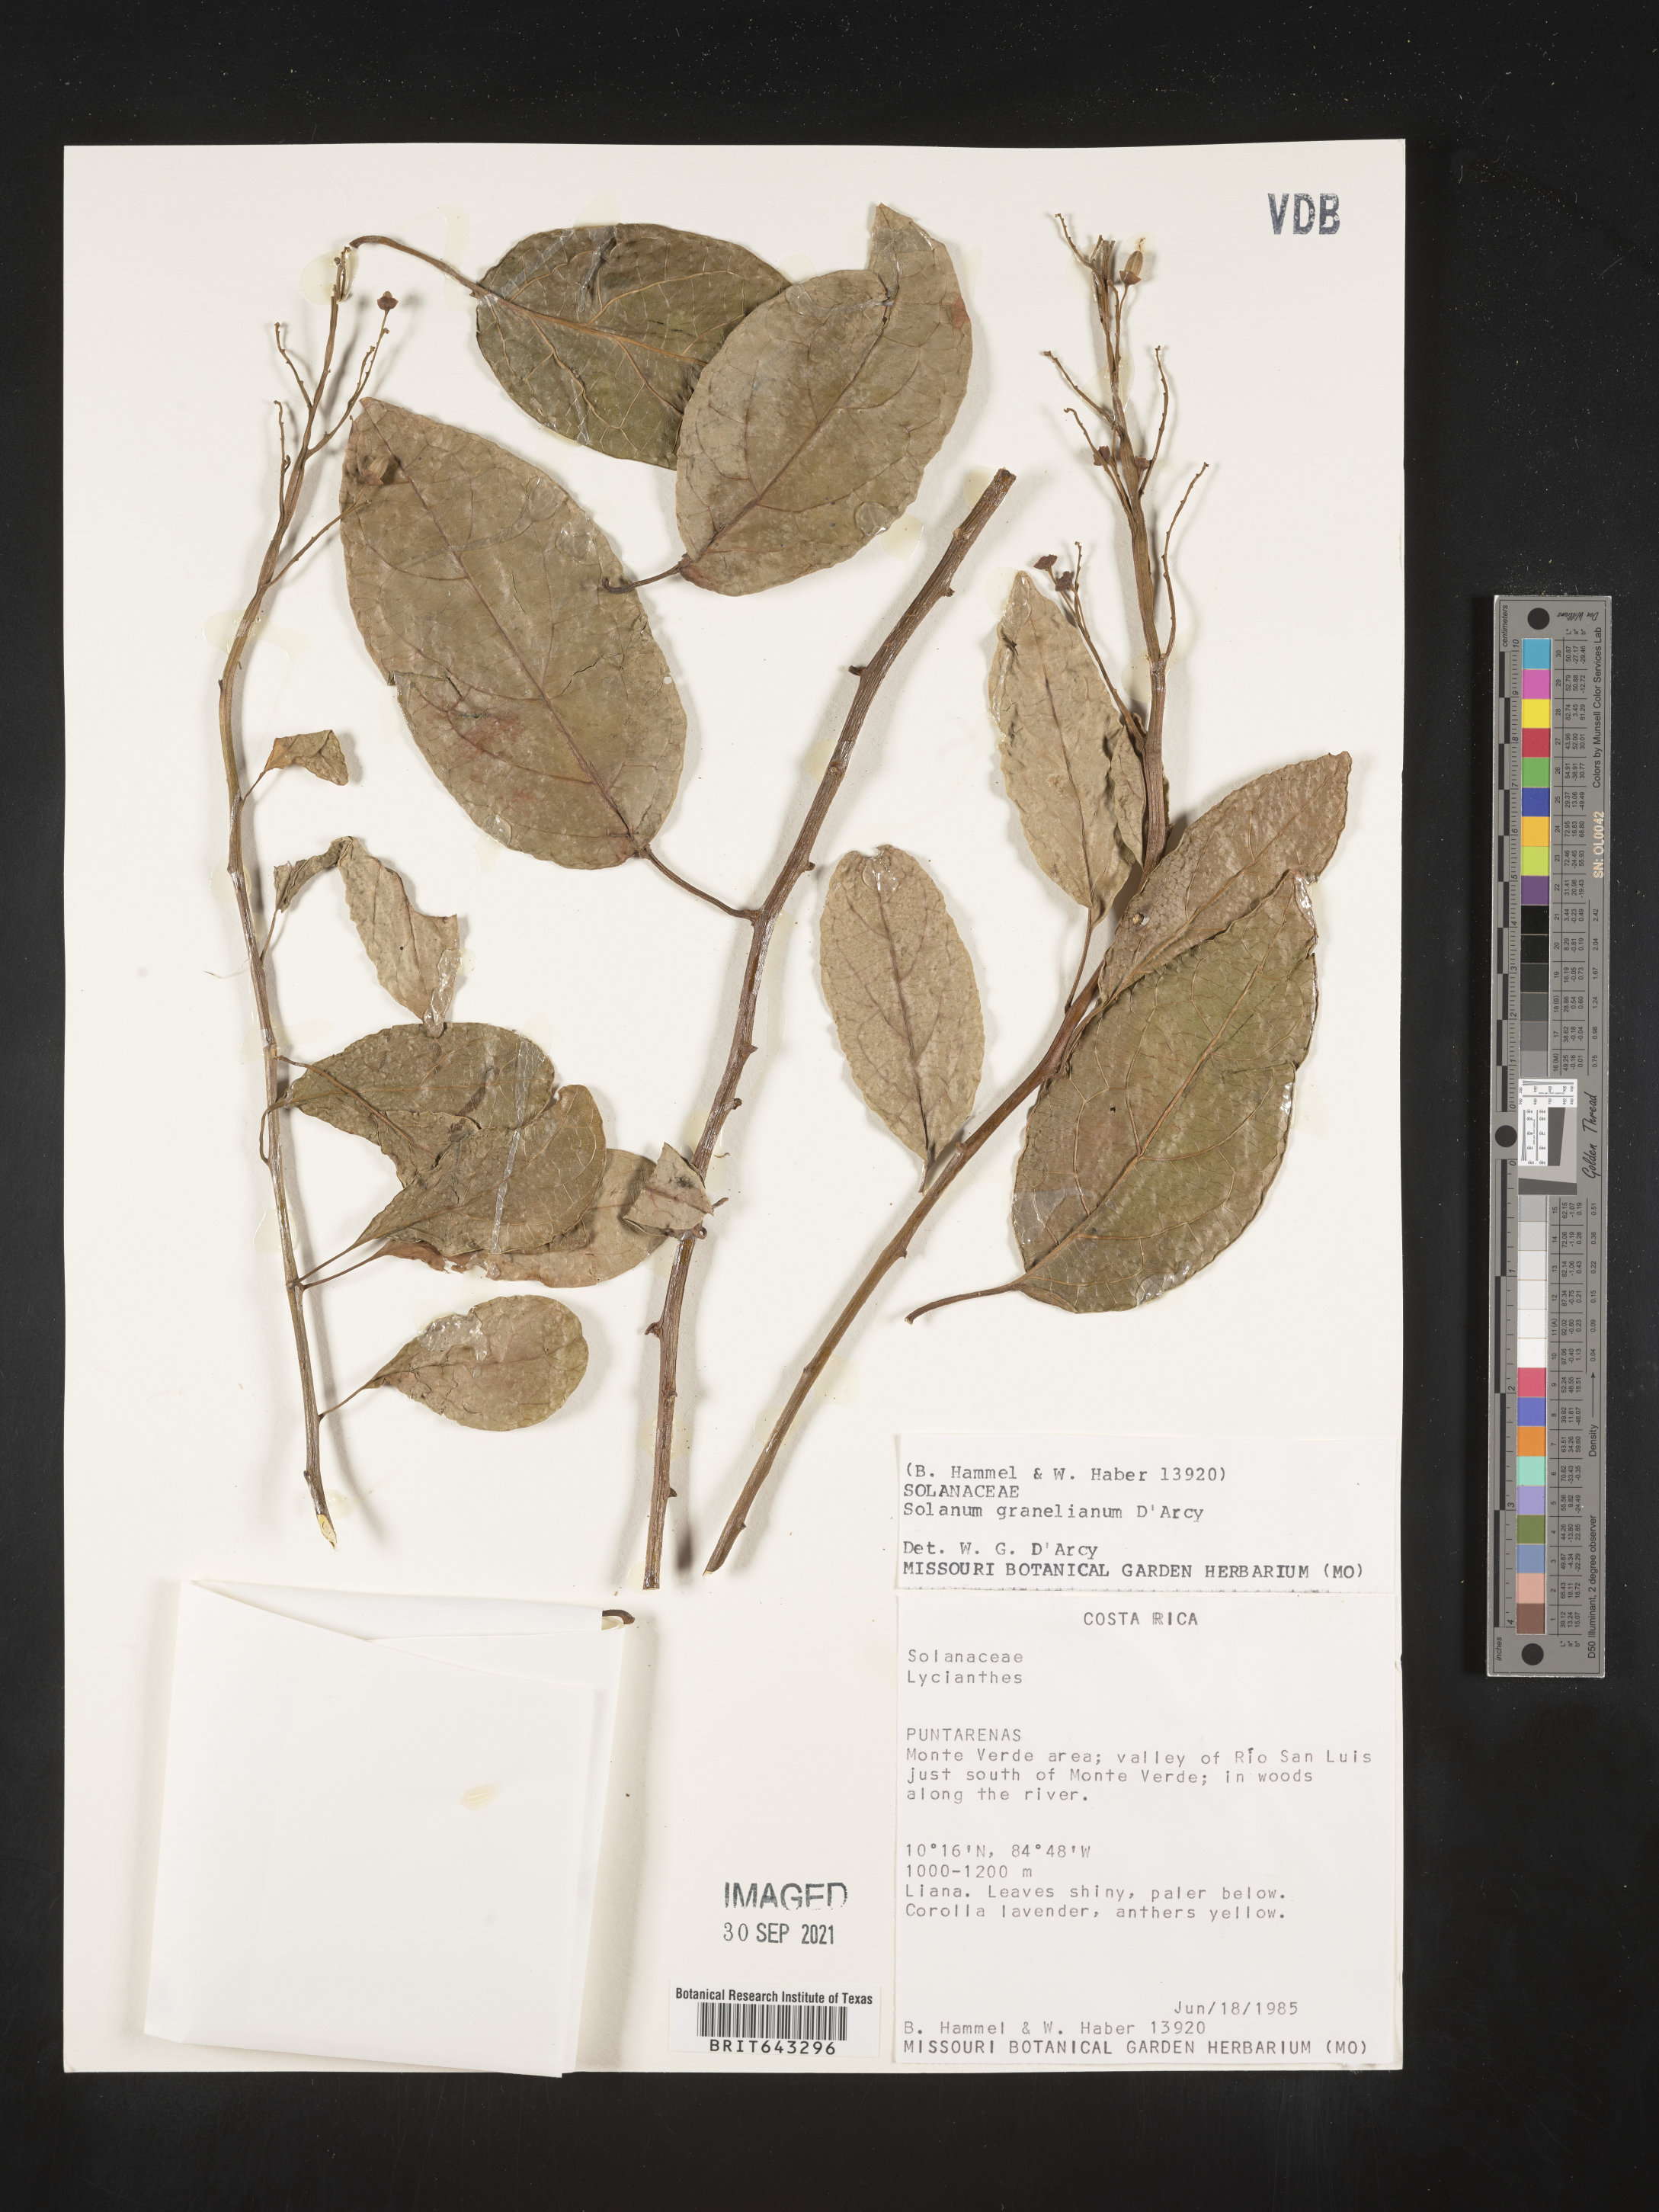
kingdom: Plantae
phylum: Tracheophyta
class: Magnoliopsida
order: Solanales
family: Solanaceae
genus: Solanum
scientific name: Solanum
